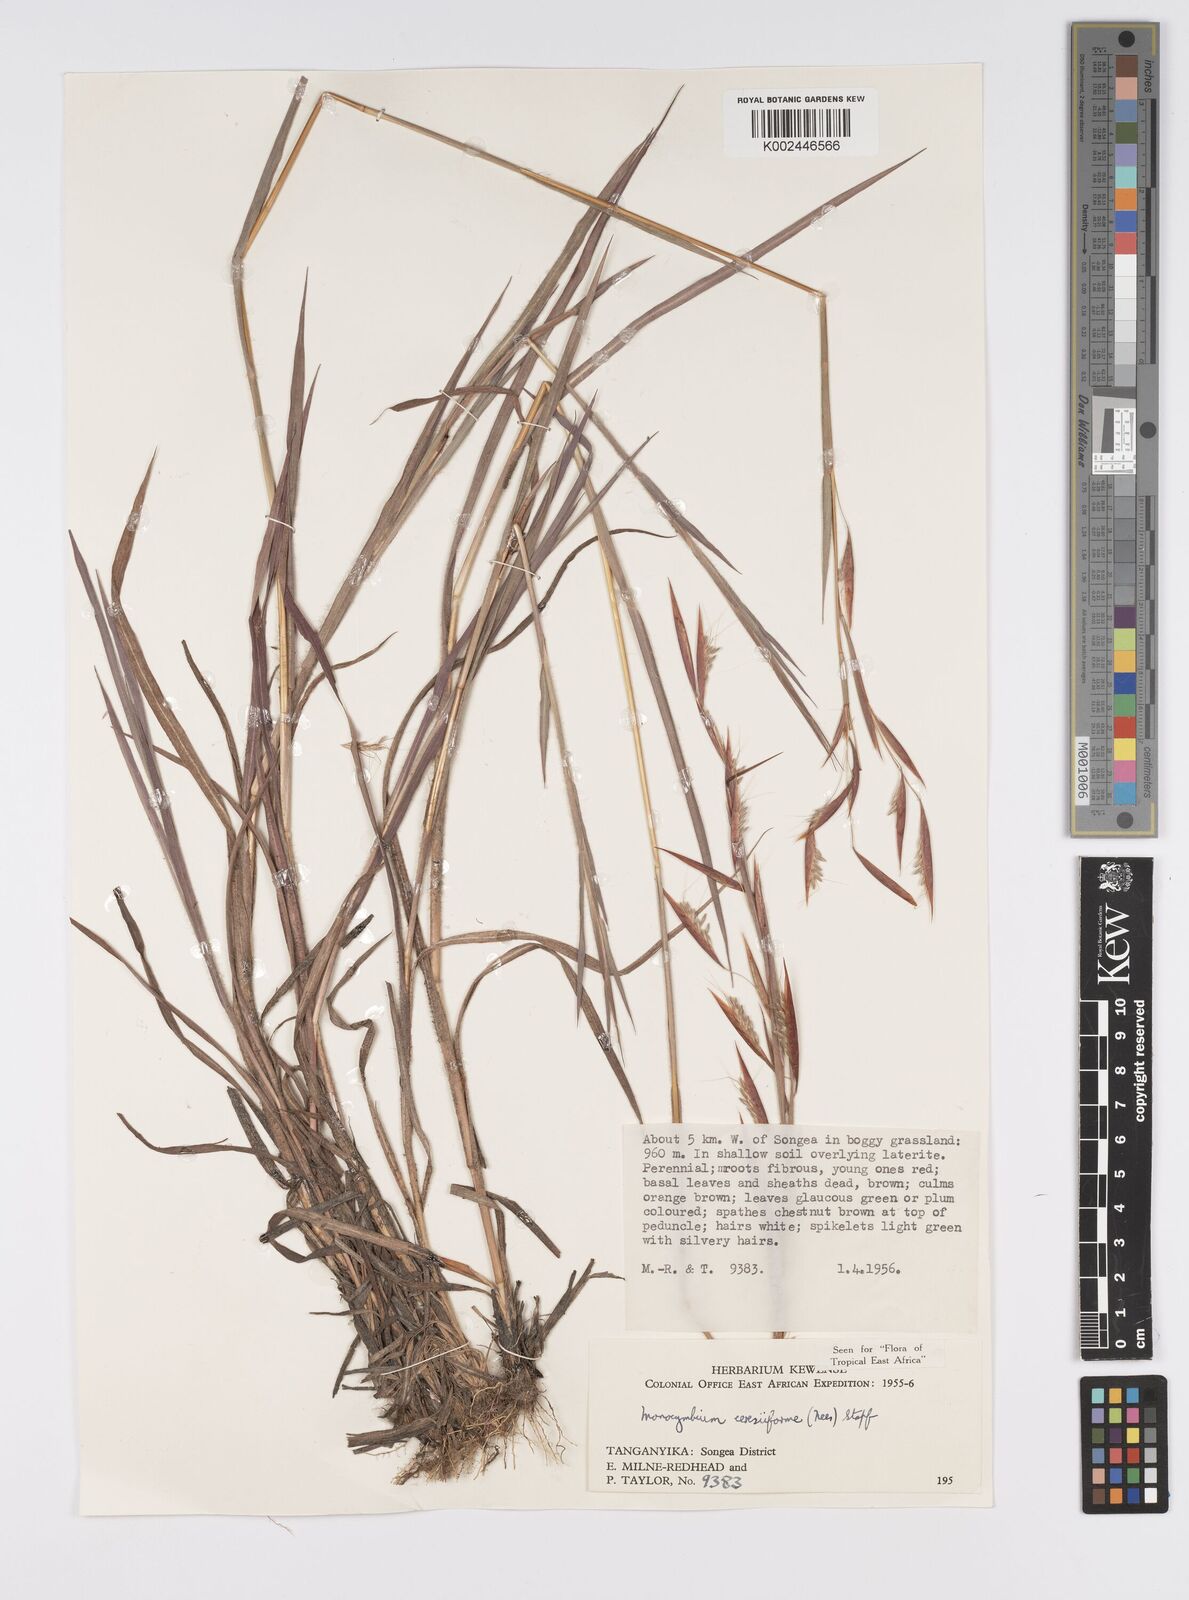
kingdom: Plantae
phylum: Tracheophyta
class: Liliopsida
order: Poales
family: Poaceae
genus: Monocymbium
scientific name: Monocymbium ceresiiforme
